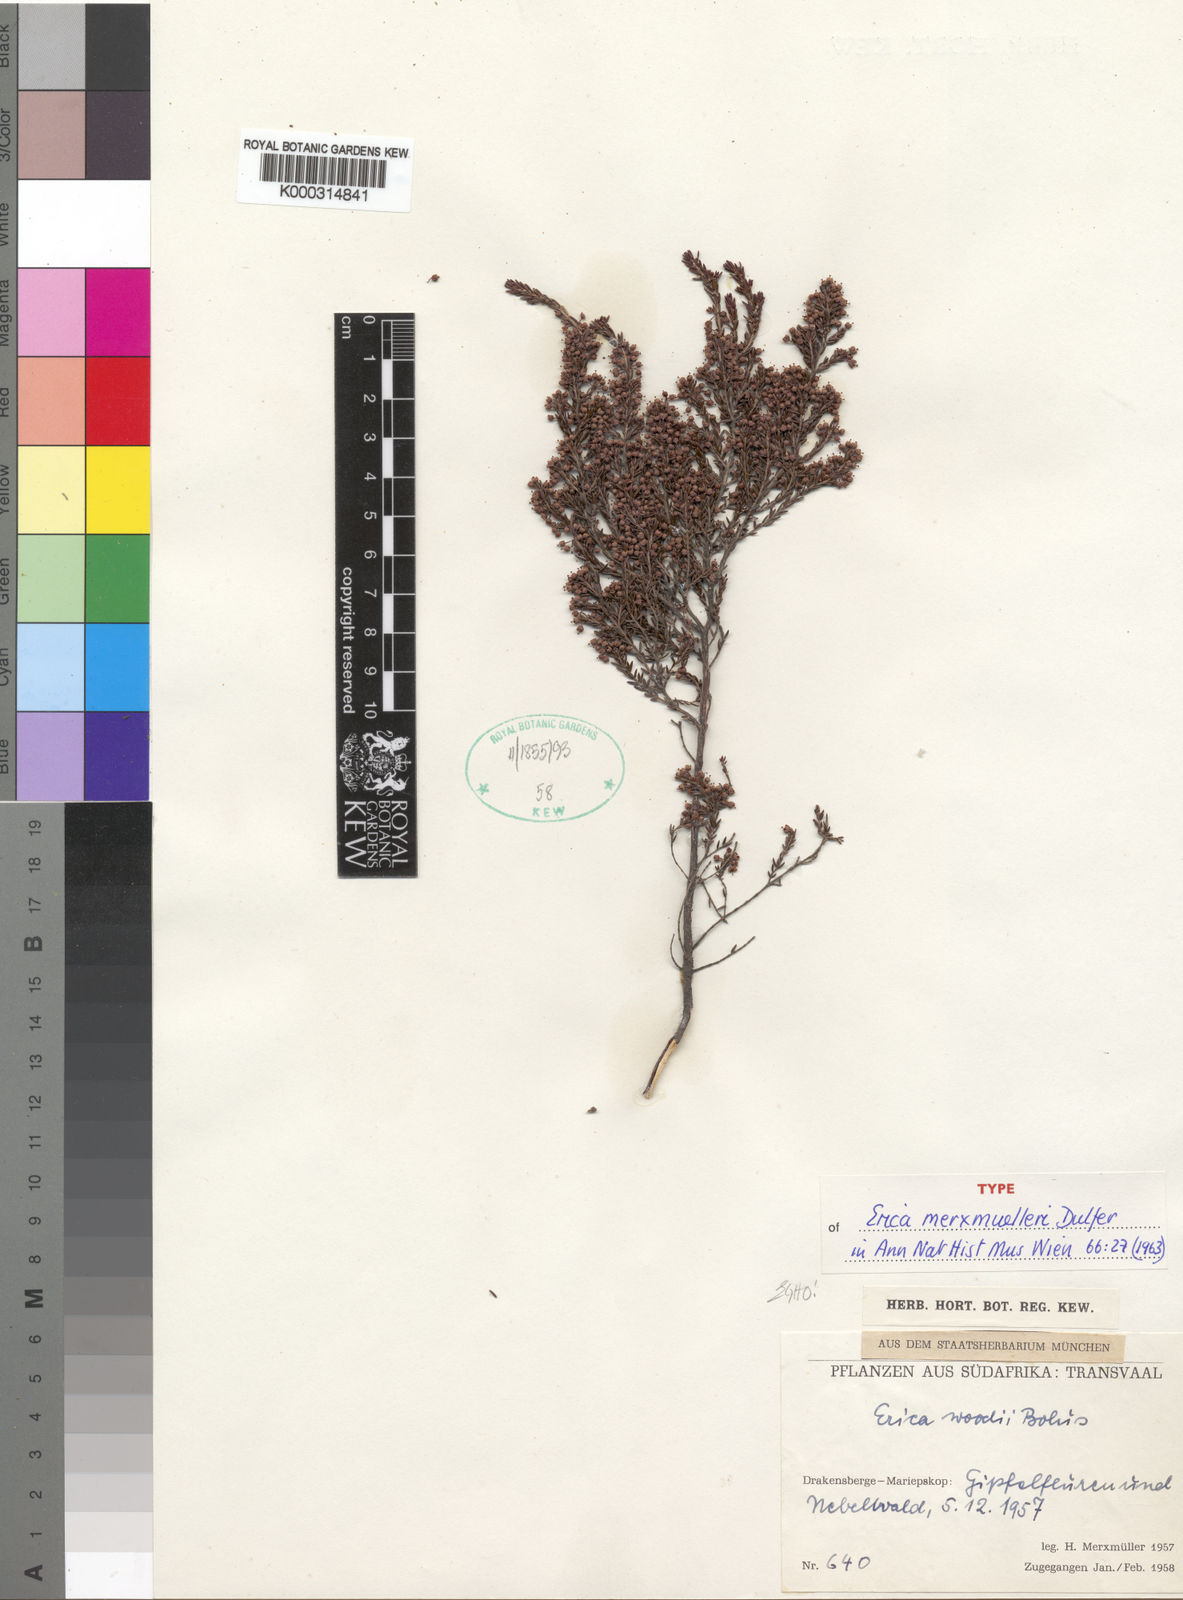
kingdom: Plantae
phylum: Tracheophyta
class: Magnoliopsida
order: Ericales
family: Ericaceae
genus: Erica
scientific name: Erica natalitia
